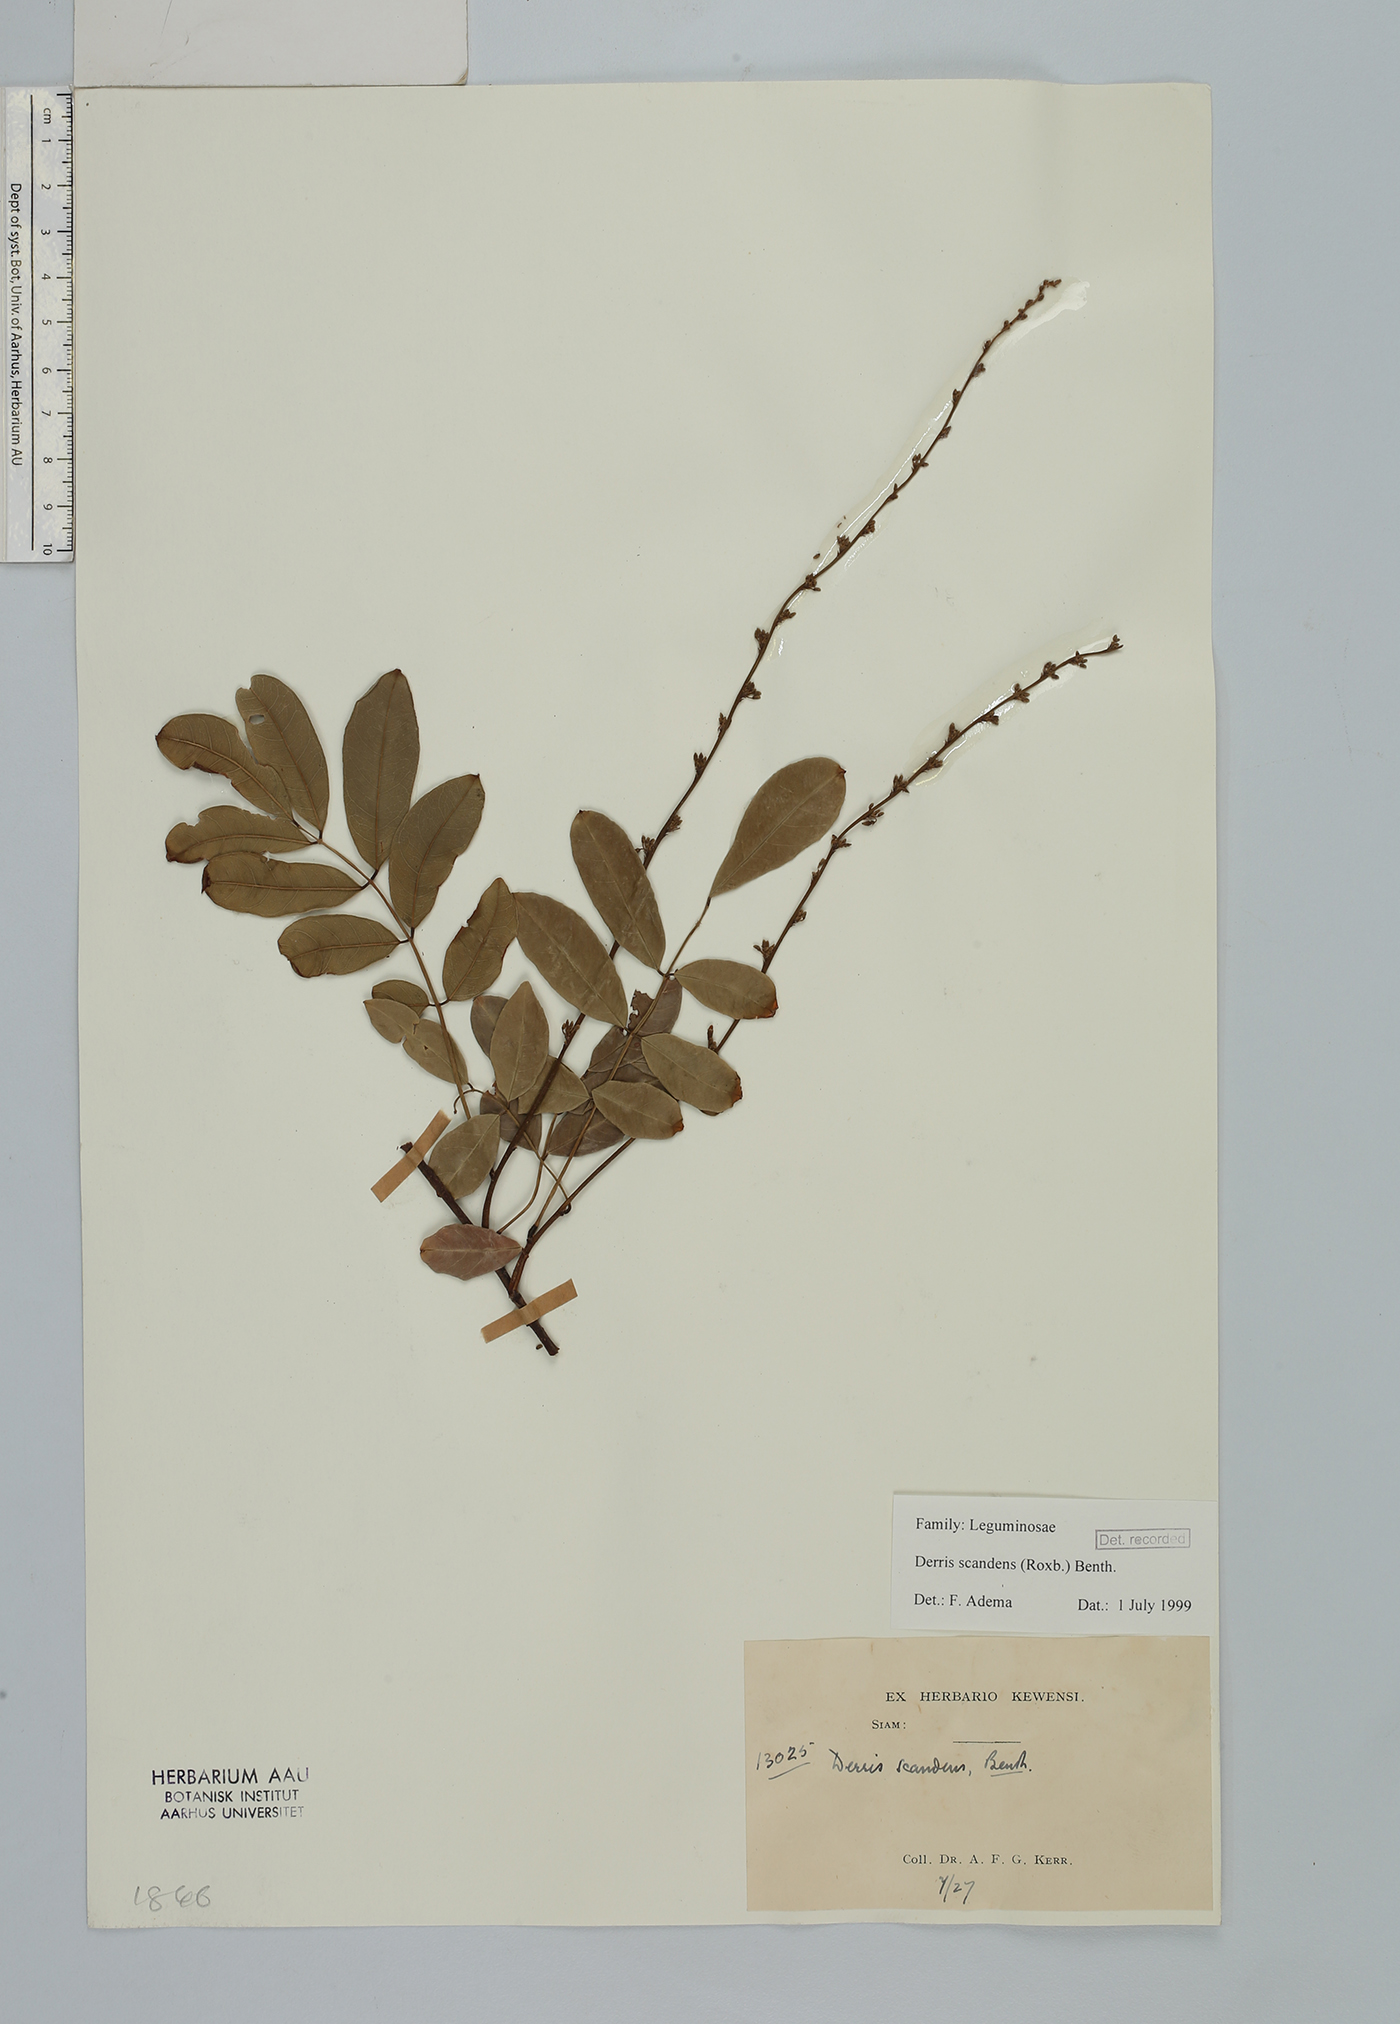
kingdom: Plantae
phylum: Tracheophyta
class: Magnoliopsida
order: Fabales
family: Fabaceae
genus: Brachypterum
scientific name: Brachypterum scandens
